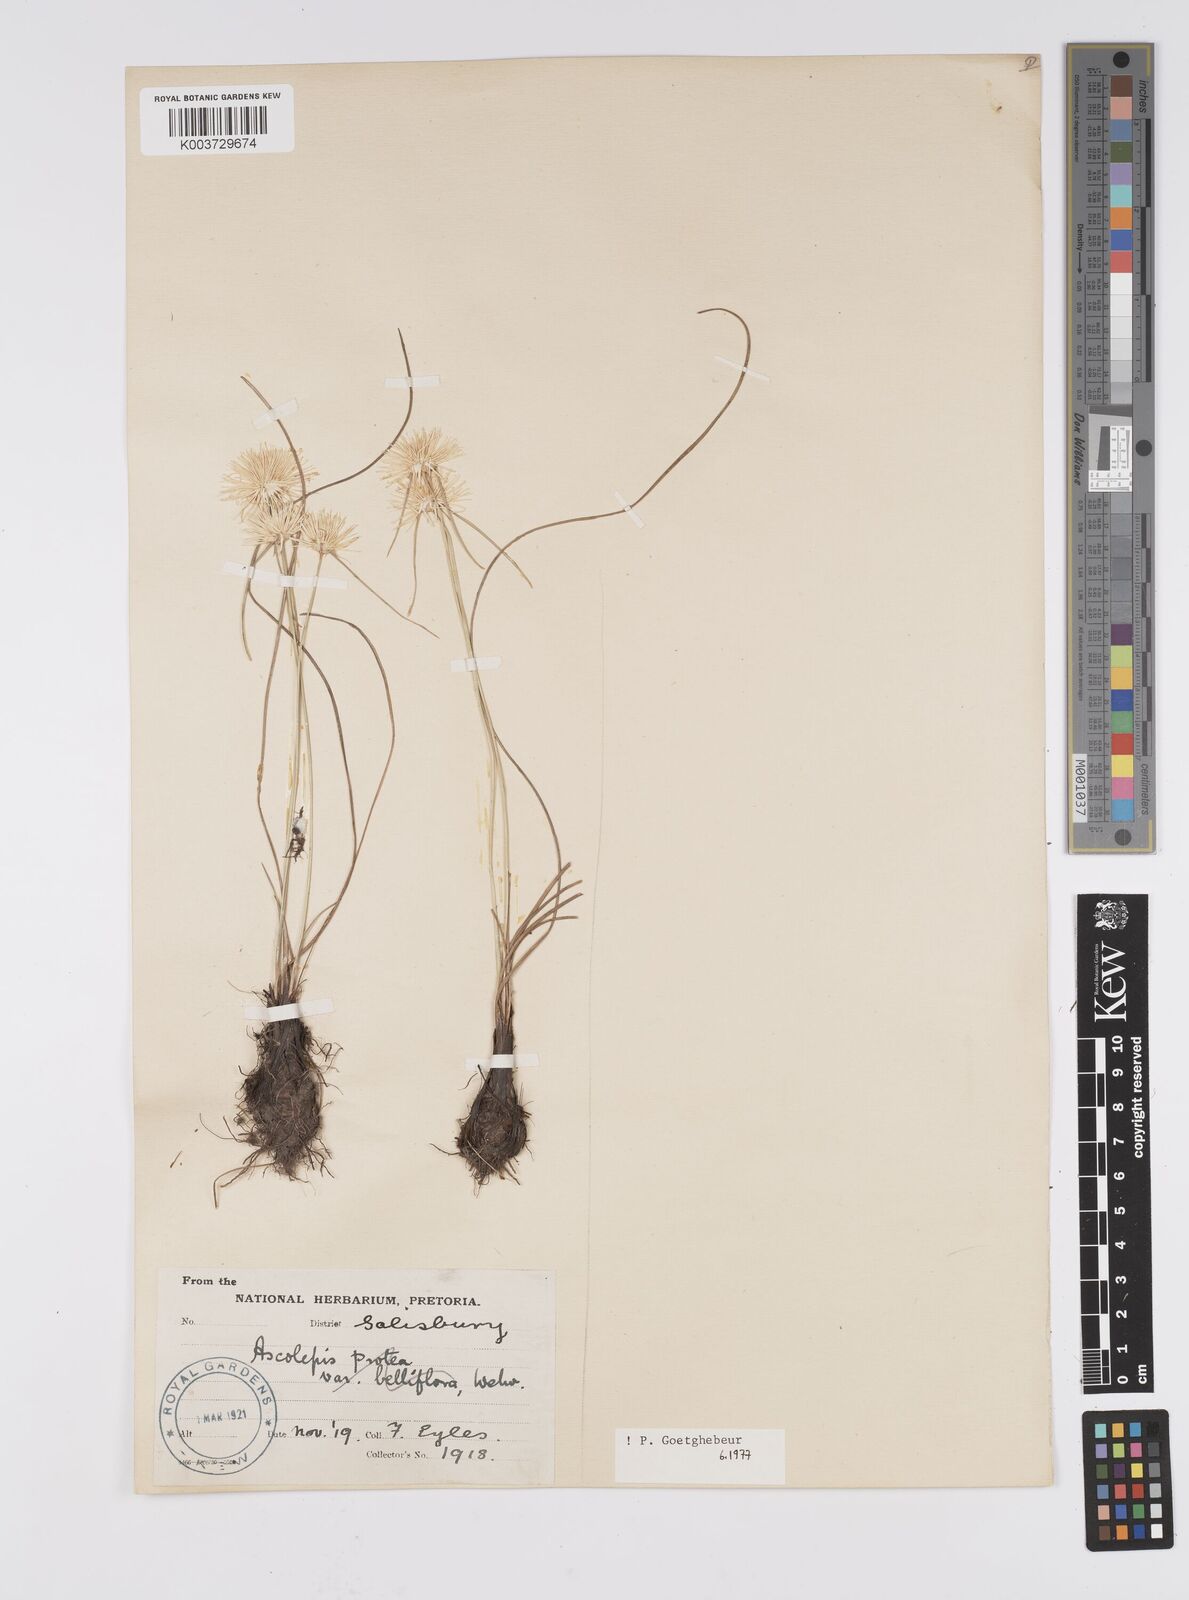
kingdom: Plantae
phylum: Tracheophyta
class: Liliopsida
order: Poales
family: Cyperaceae
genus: Cyperus
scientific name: Cyperus
